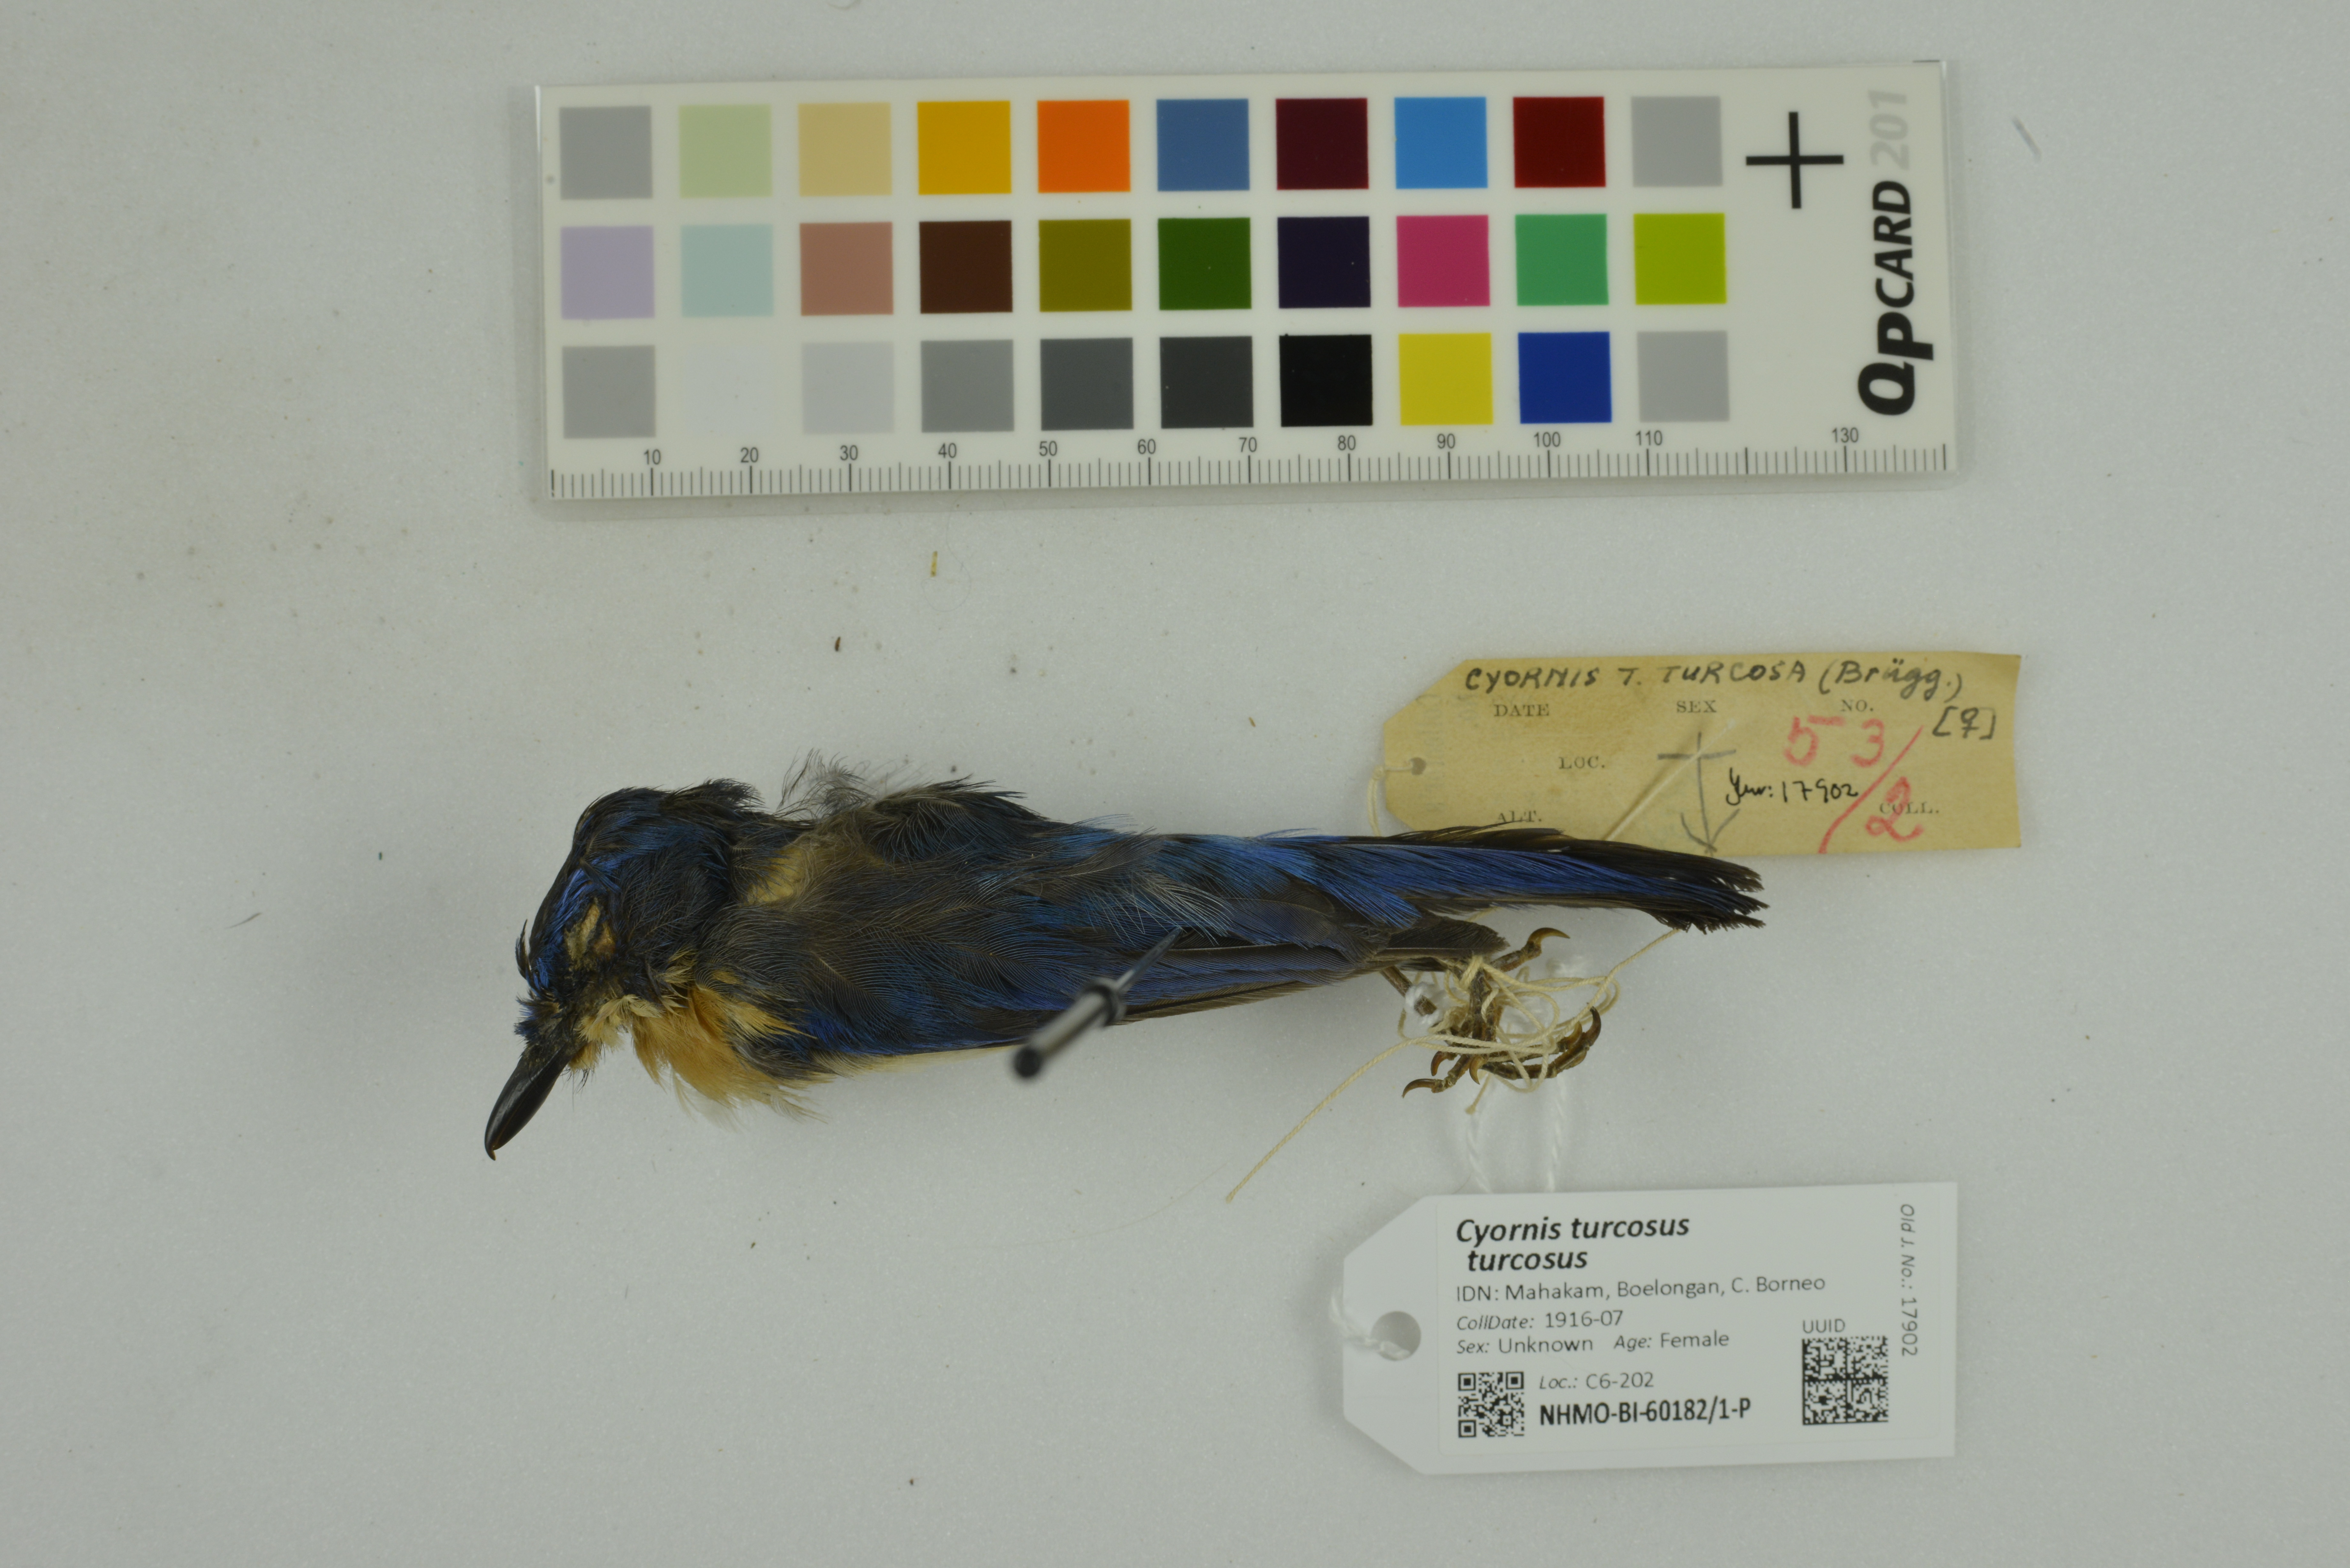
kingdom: Animalia
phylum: Chordata
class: Aves
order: Passeriformes
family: Muscicapidae
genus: Cyornis
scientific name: Cyornis turcosus
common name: Malaysian blue flycatcher
